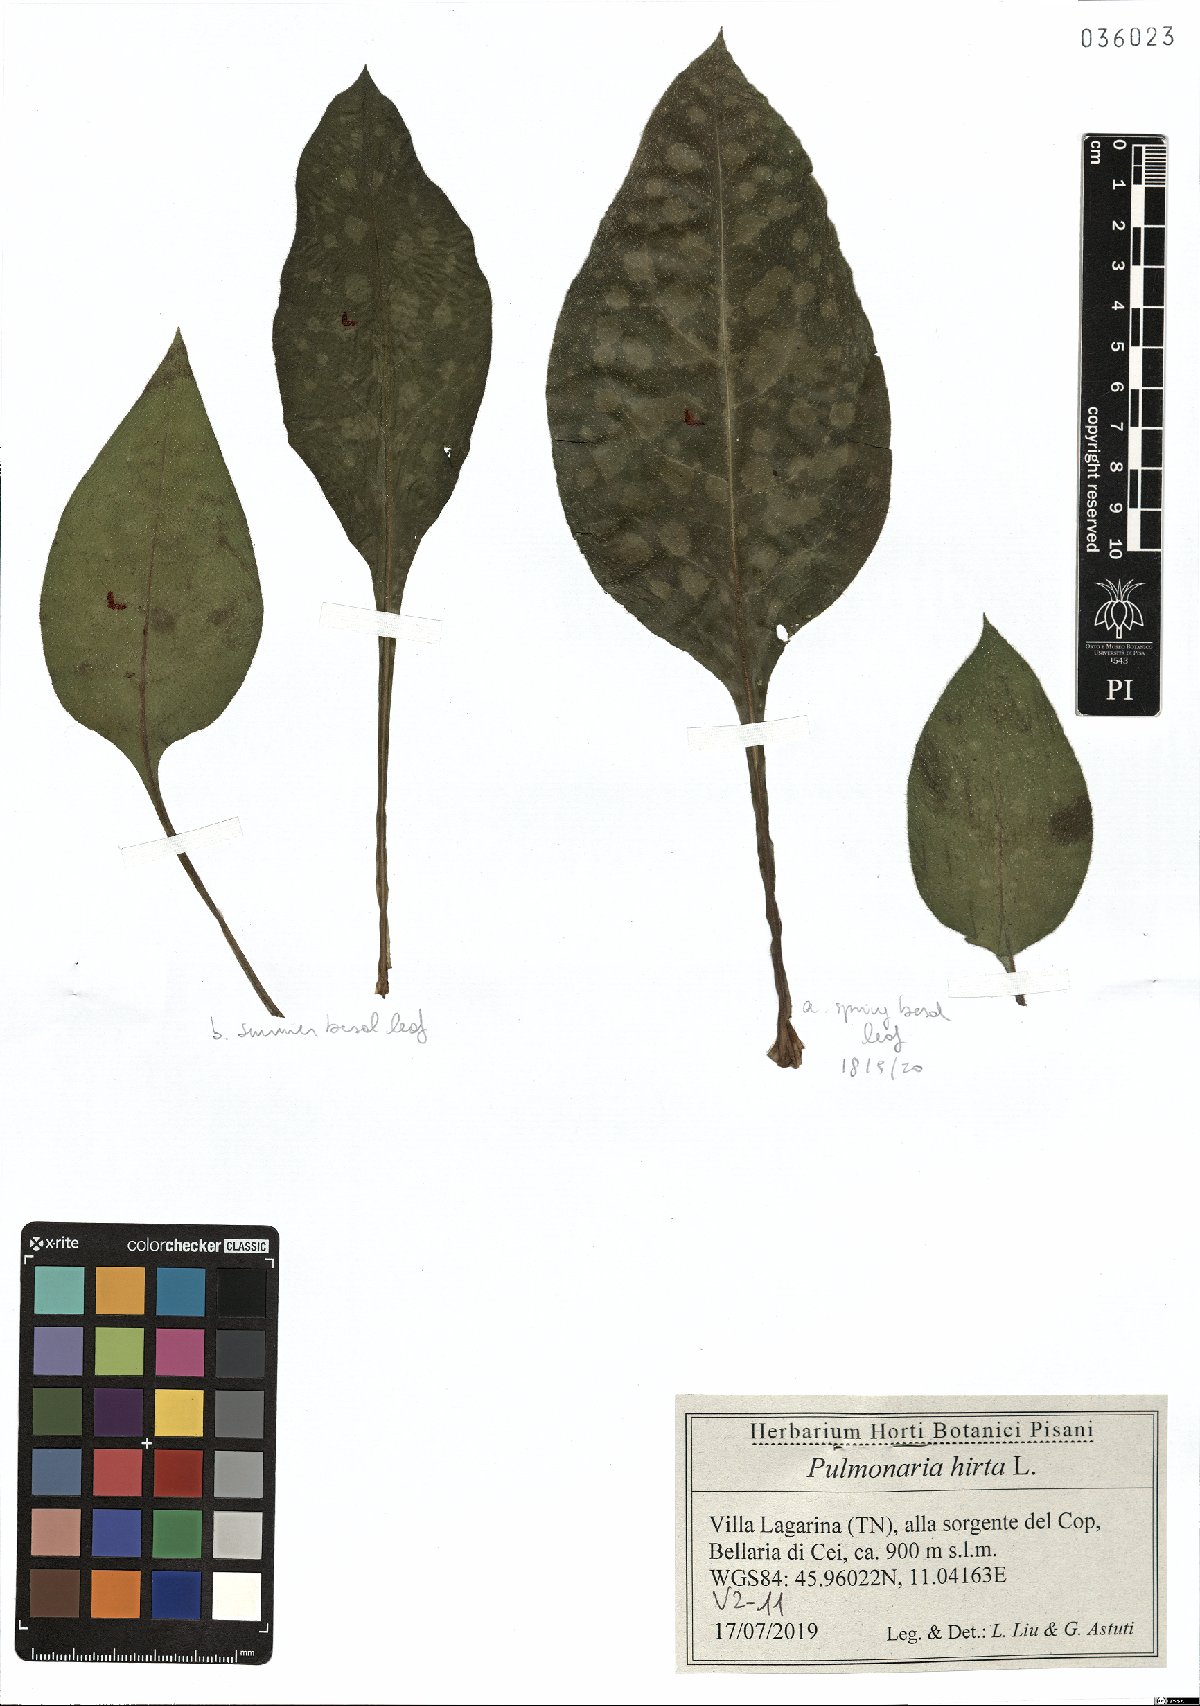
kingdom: Plantae
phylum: Tracheophyta
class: Magnoliopsida
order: Boraginales
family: Boraginaceae
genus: Pulmonaria
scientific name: Pulmonaria hirta
